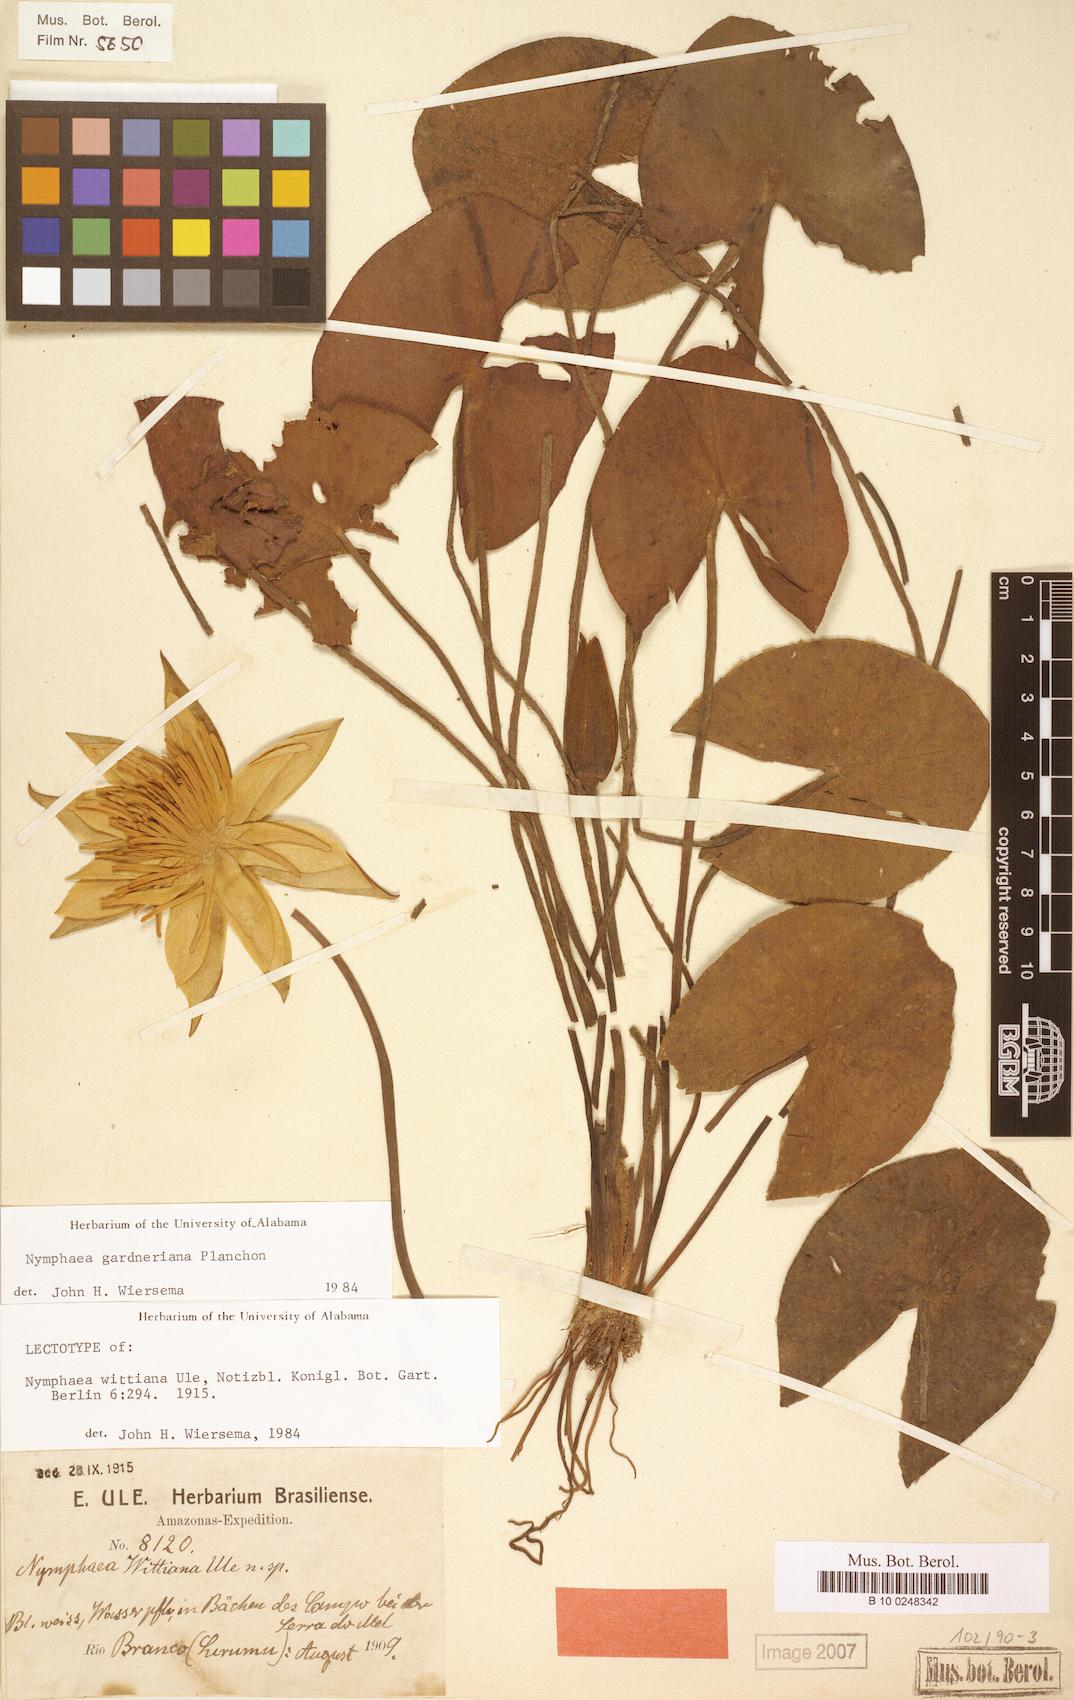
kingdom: Plantae
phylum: Tracheophyta
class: Magnoliopsida
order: Nymphaeales
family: Nymphaeaceae
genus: Nymphaea
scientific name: Nymphaea gardneriana
